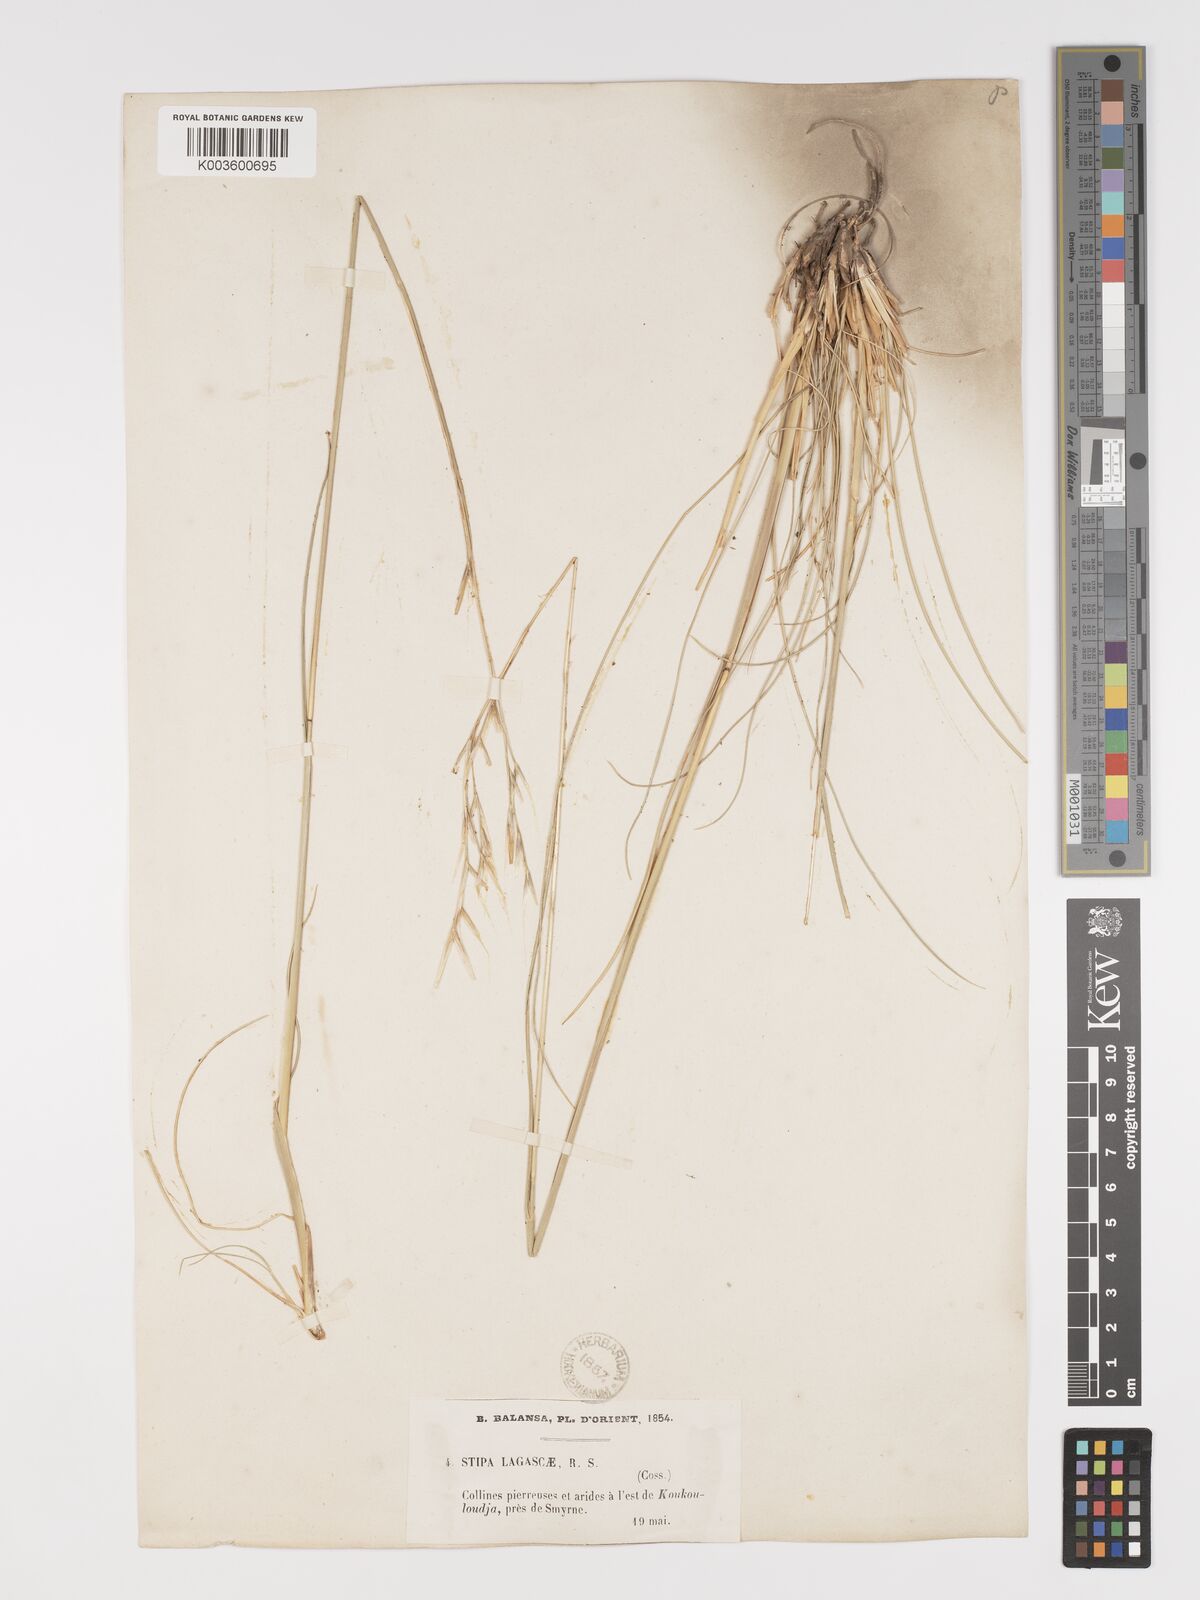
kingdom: Plantae
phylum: Tracheophyta
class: Liliopsida
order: Poales
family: Poaceae
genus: Stipa
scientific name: Stipa holosericea
